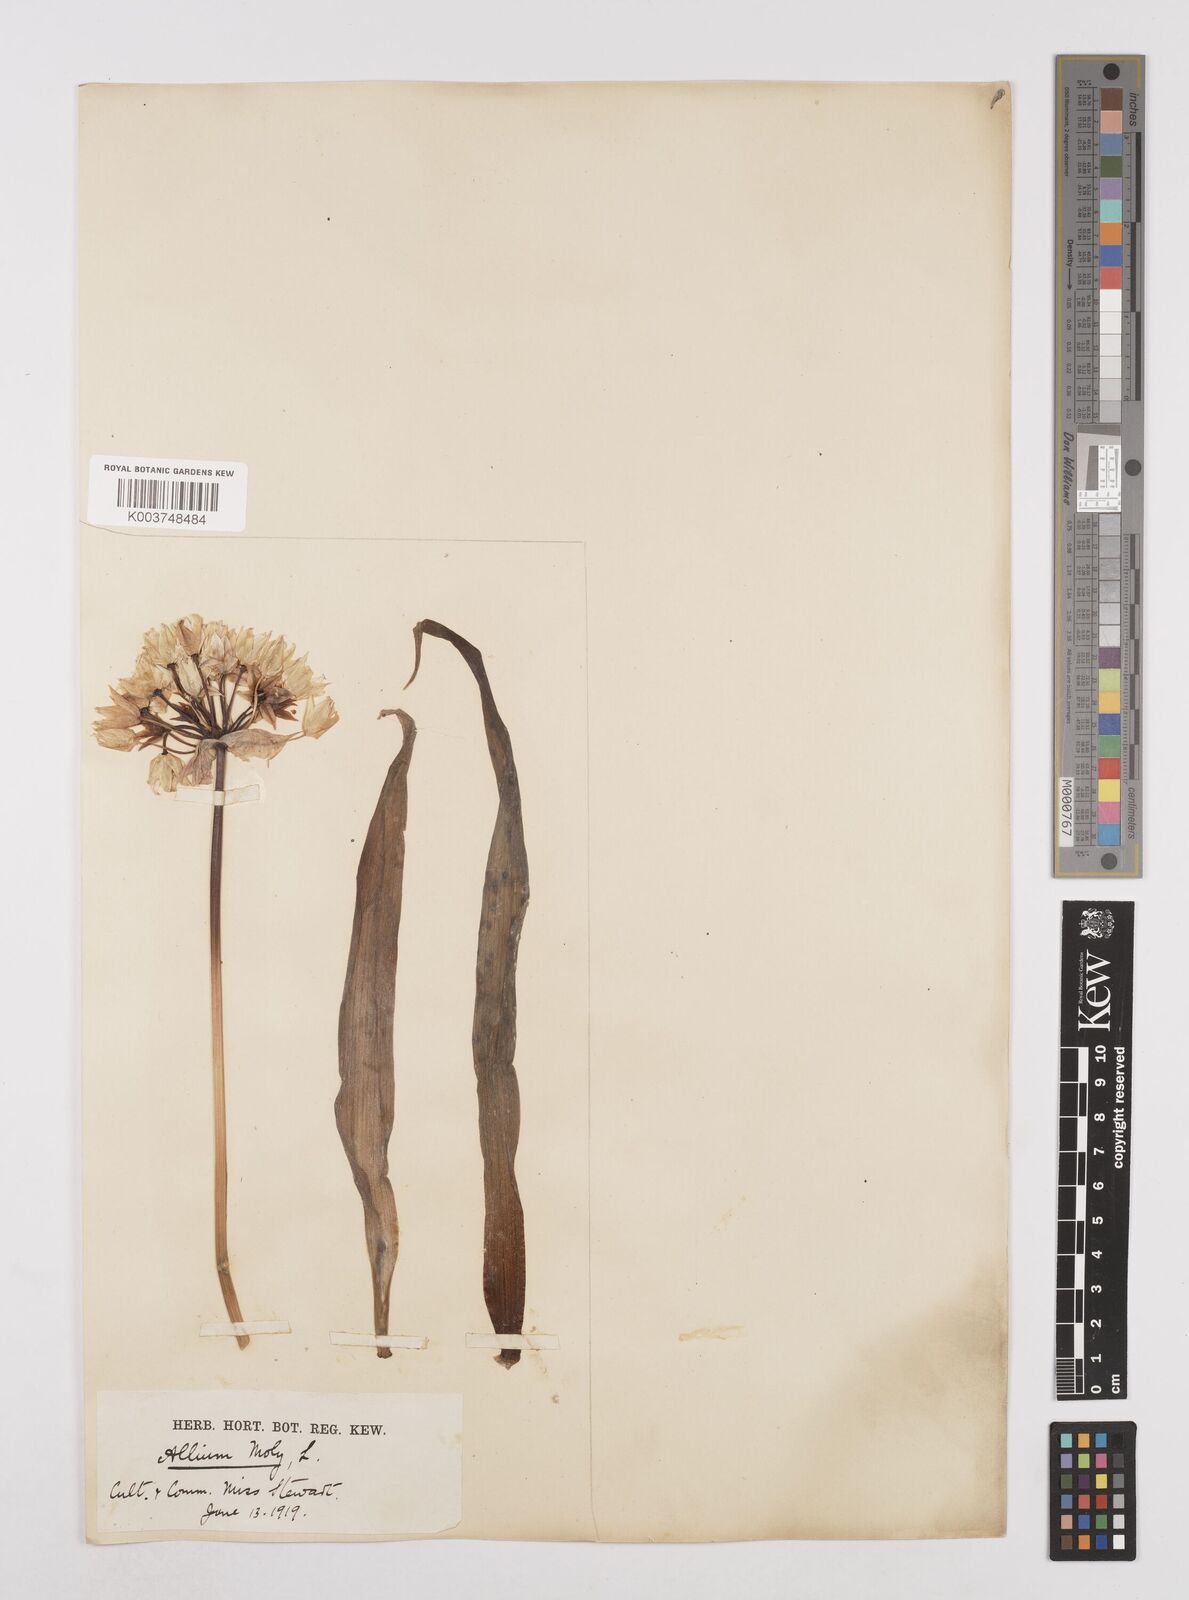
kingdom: Plantae
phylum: Tracheophyta
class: Liliopsida
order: Asparagales
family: Amaryllidaceae
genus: Allium
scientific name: Allium moly
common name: Yellow garlic
